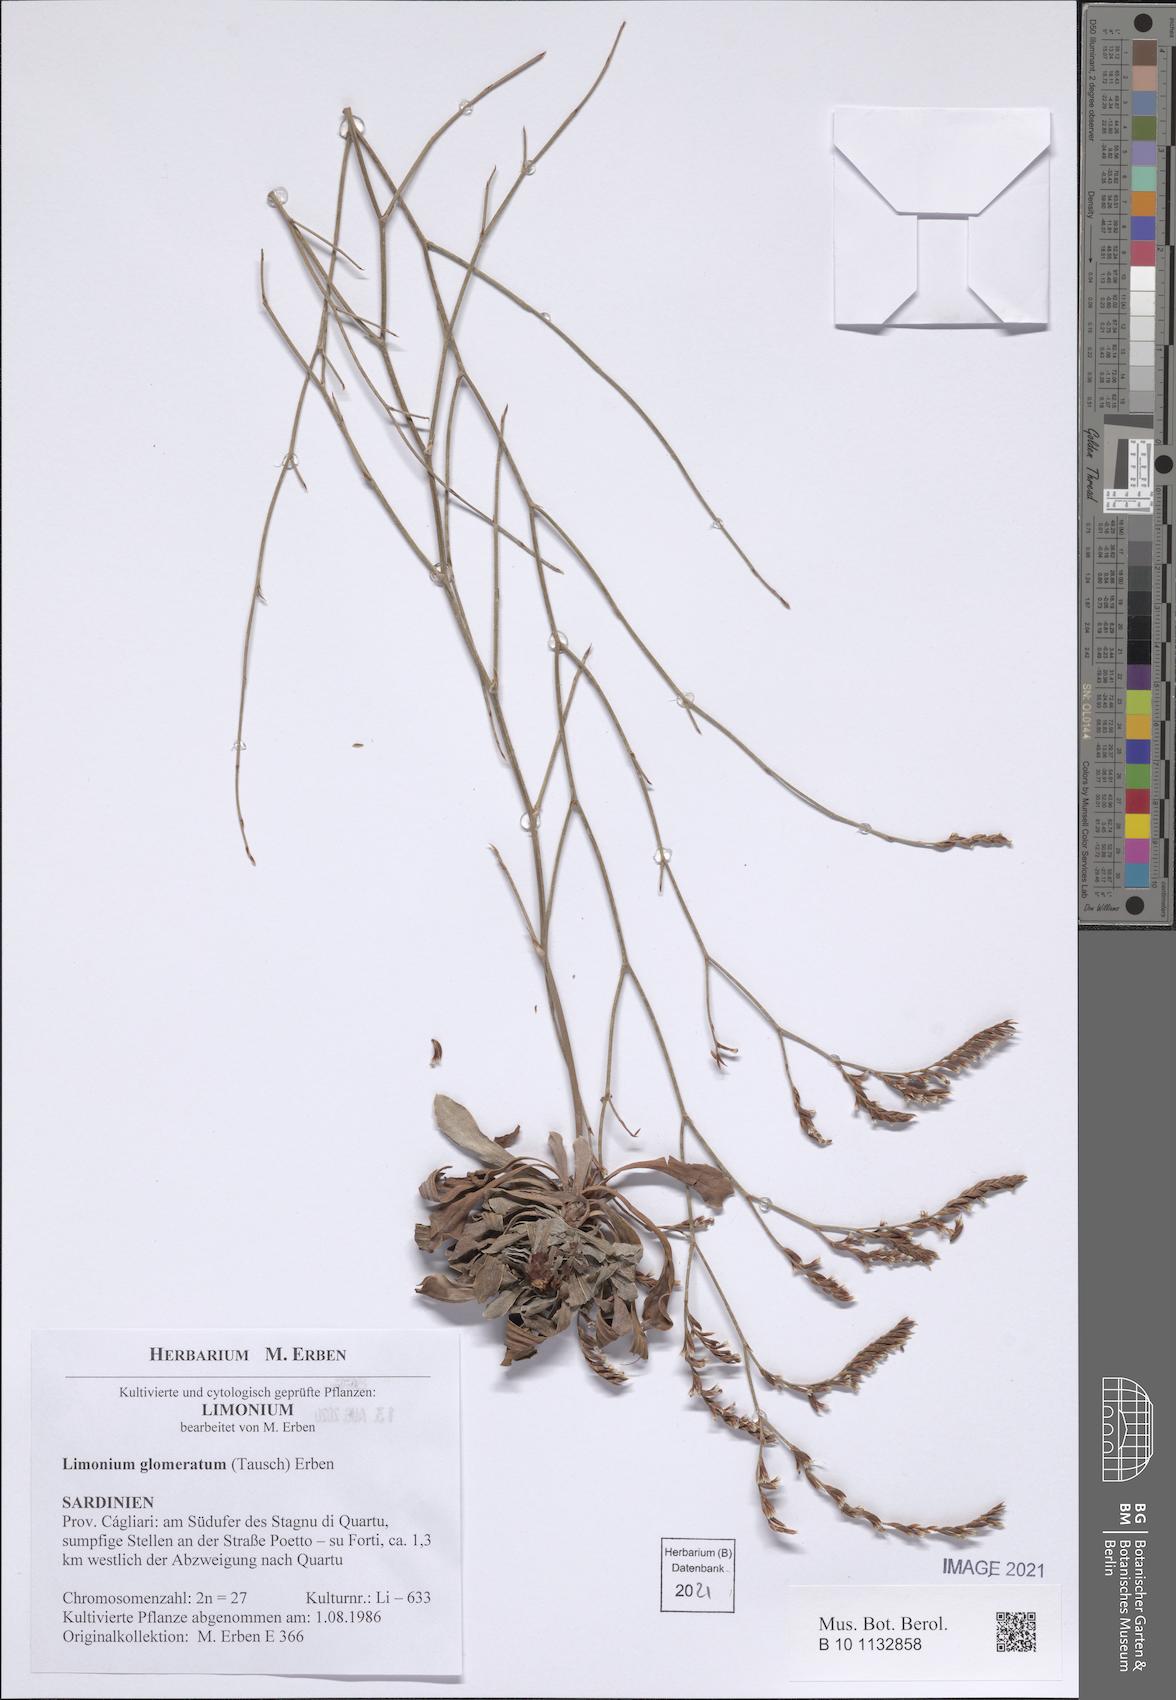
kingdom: Plantae
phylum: Tracheophyta
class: Magnoliopsida
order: Caryophyllales
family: Plumbaginaceae
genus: Limonium
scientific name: Limonium glomeratum
